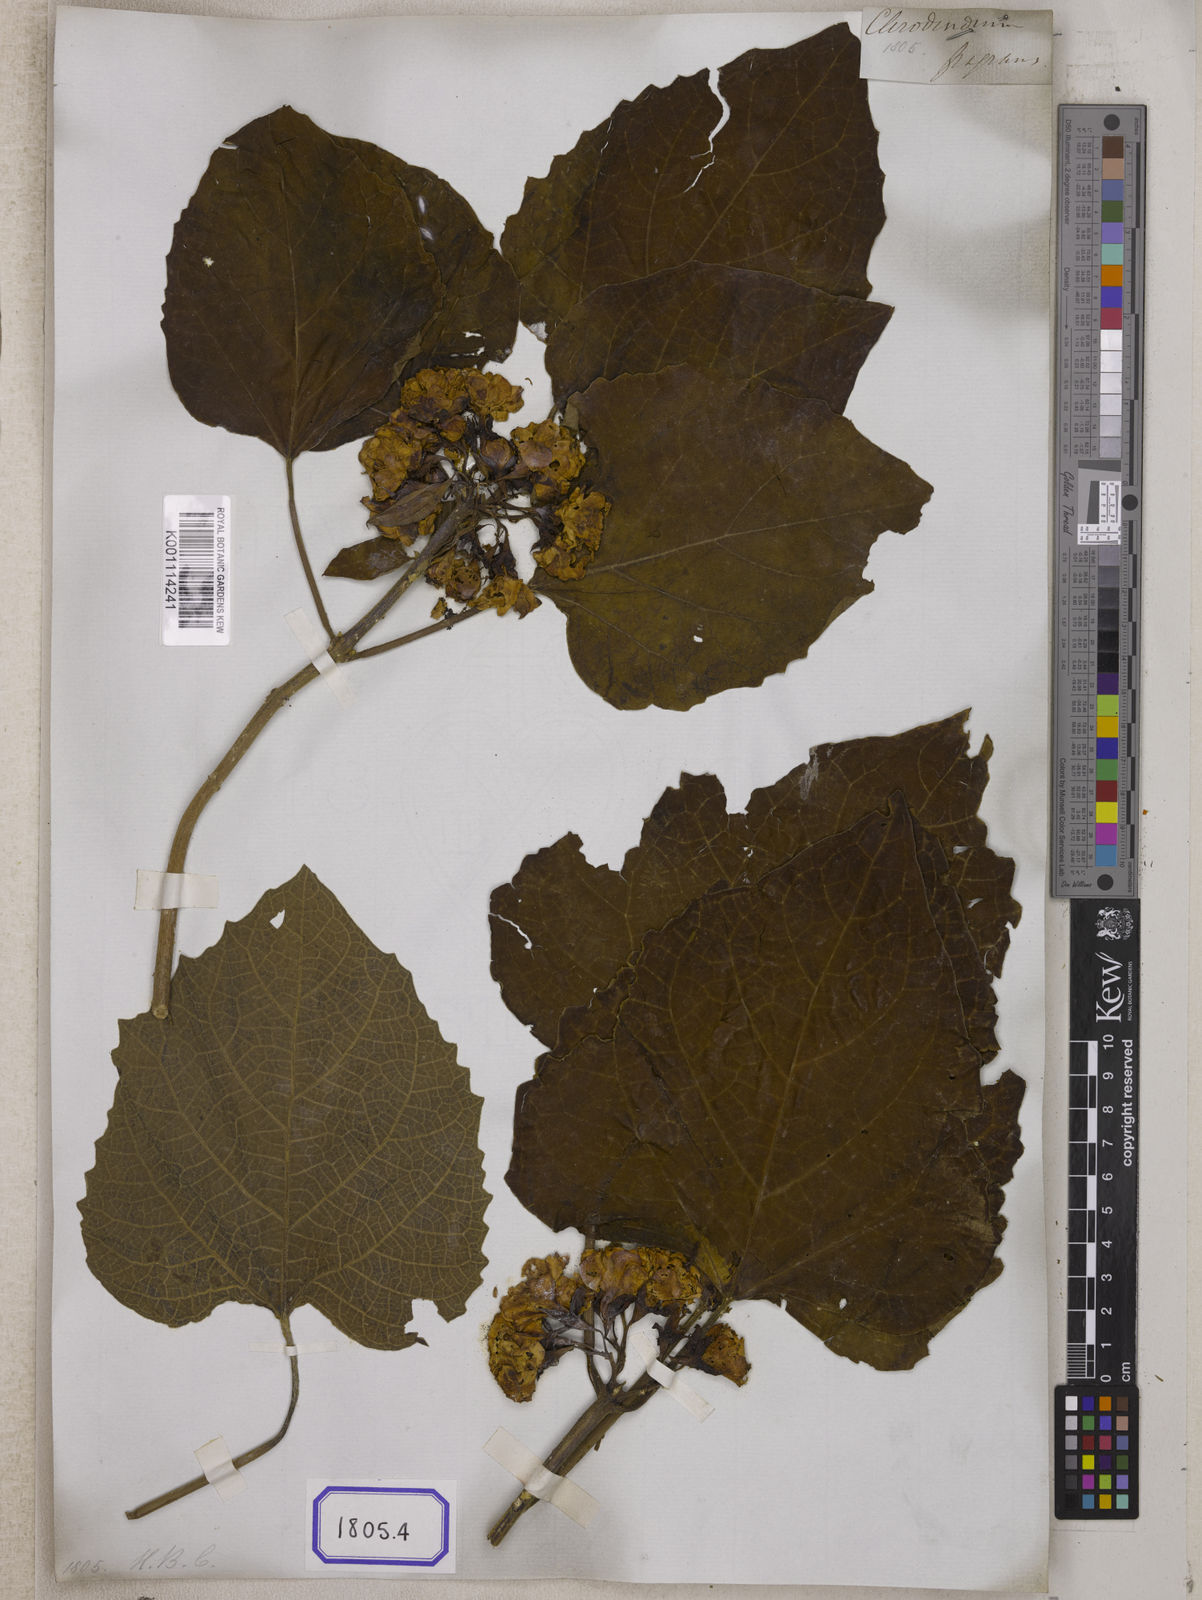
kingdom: Plantae
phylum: Tracheophyta
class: Magnoliopsida
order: Lamiales
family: Lamiaceae
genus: Clerodendrum
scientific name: Clerodendrum
